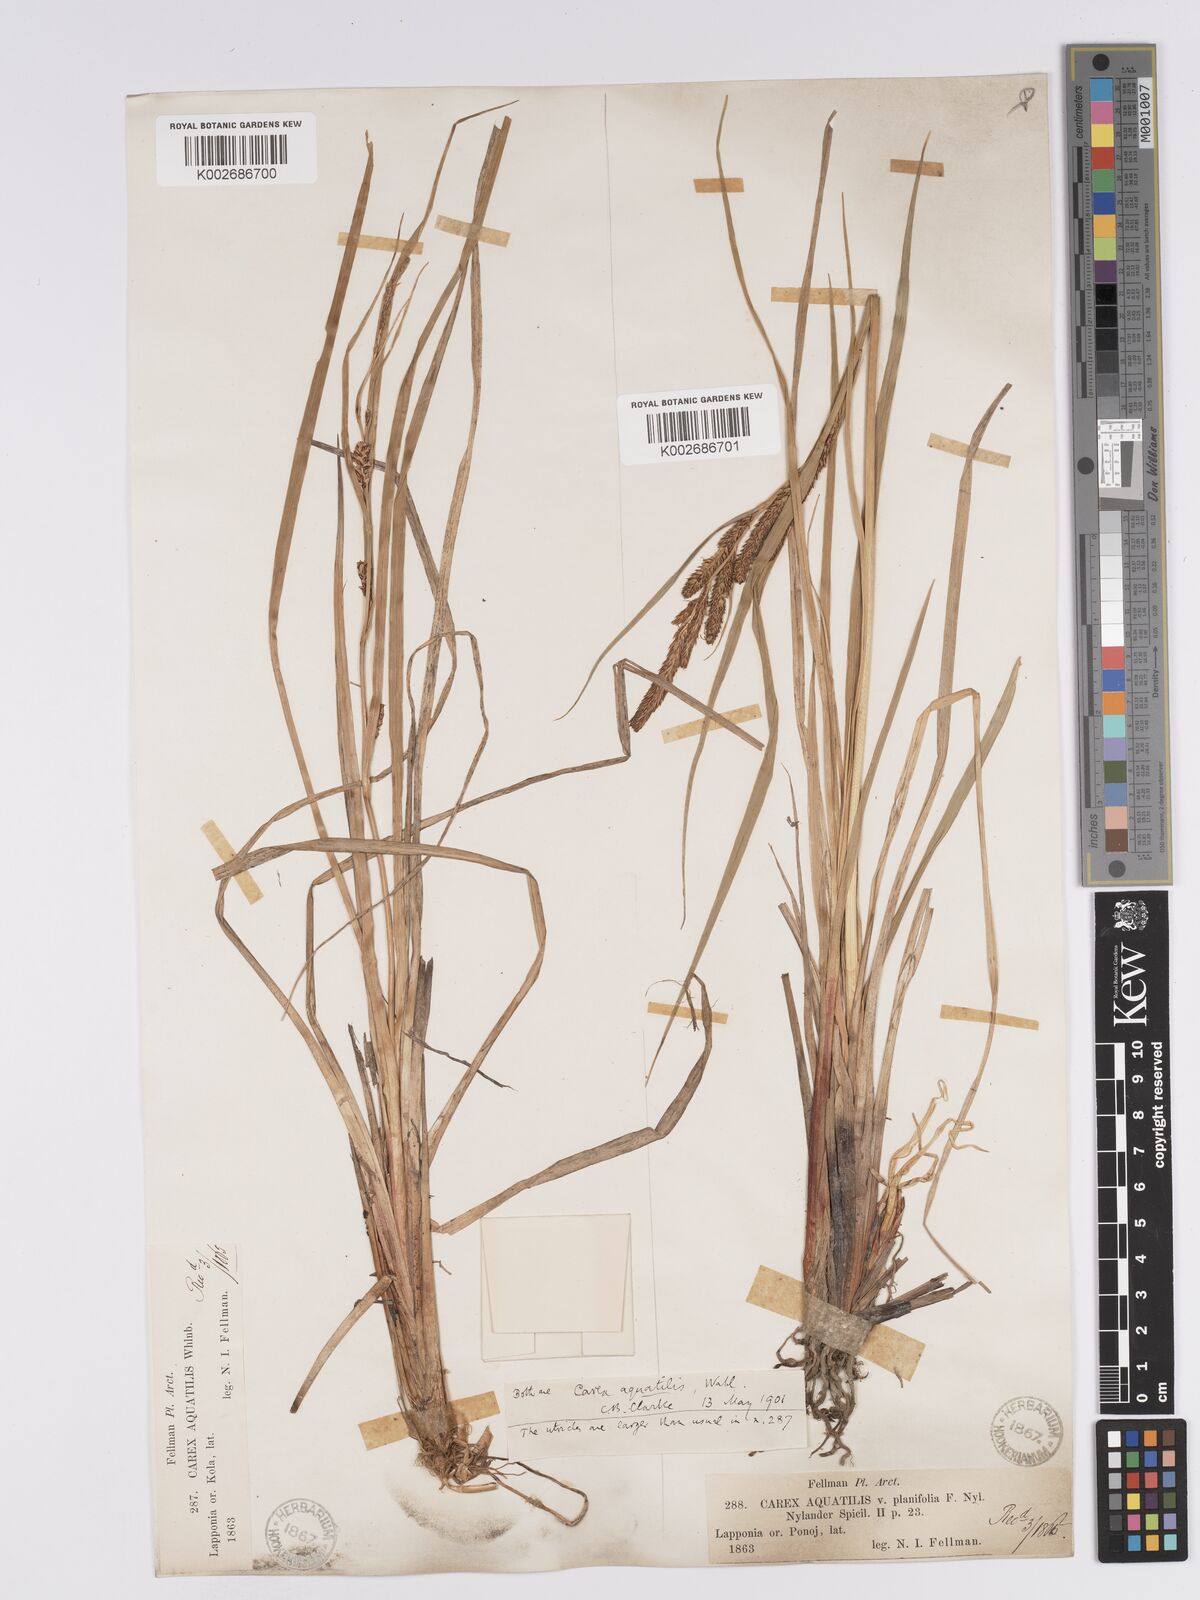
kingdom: Plantae
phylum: Tracheophyta
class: Liliopsida
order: Poales
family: Cyperaceae
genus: Carex
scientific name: Carex aquatilis
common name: Water sedge
